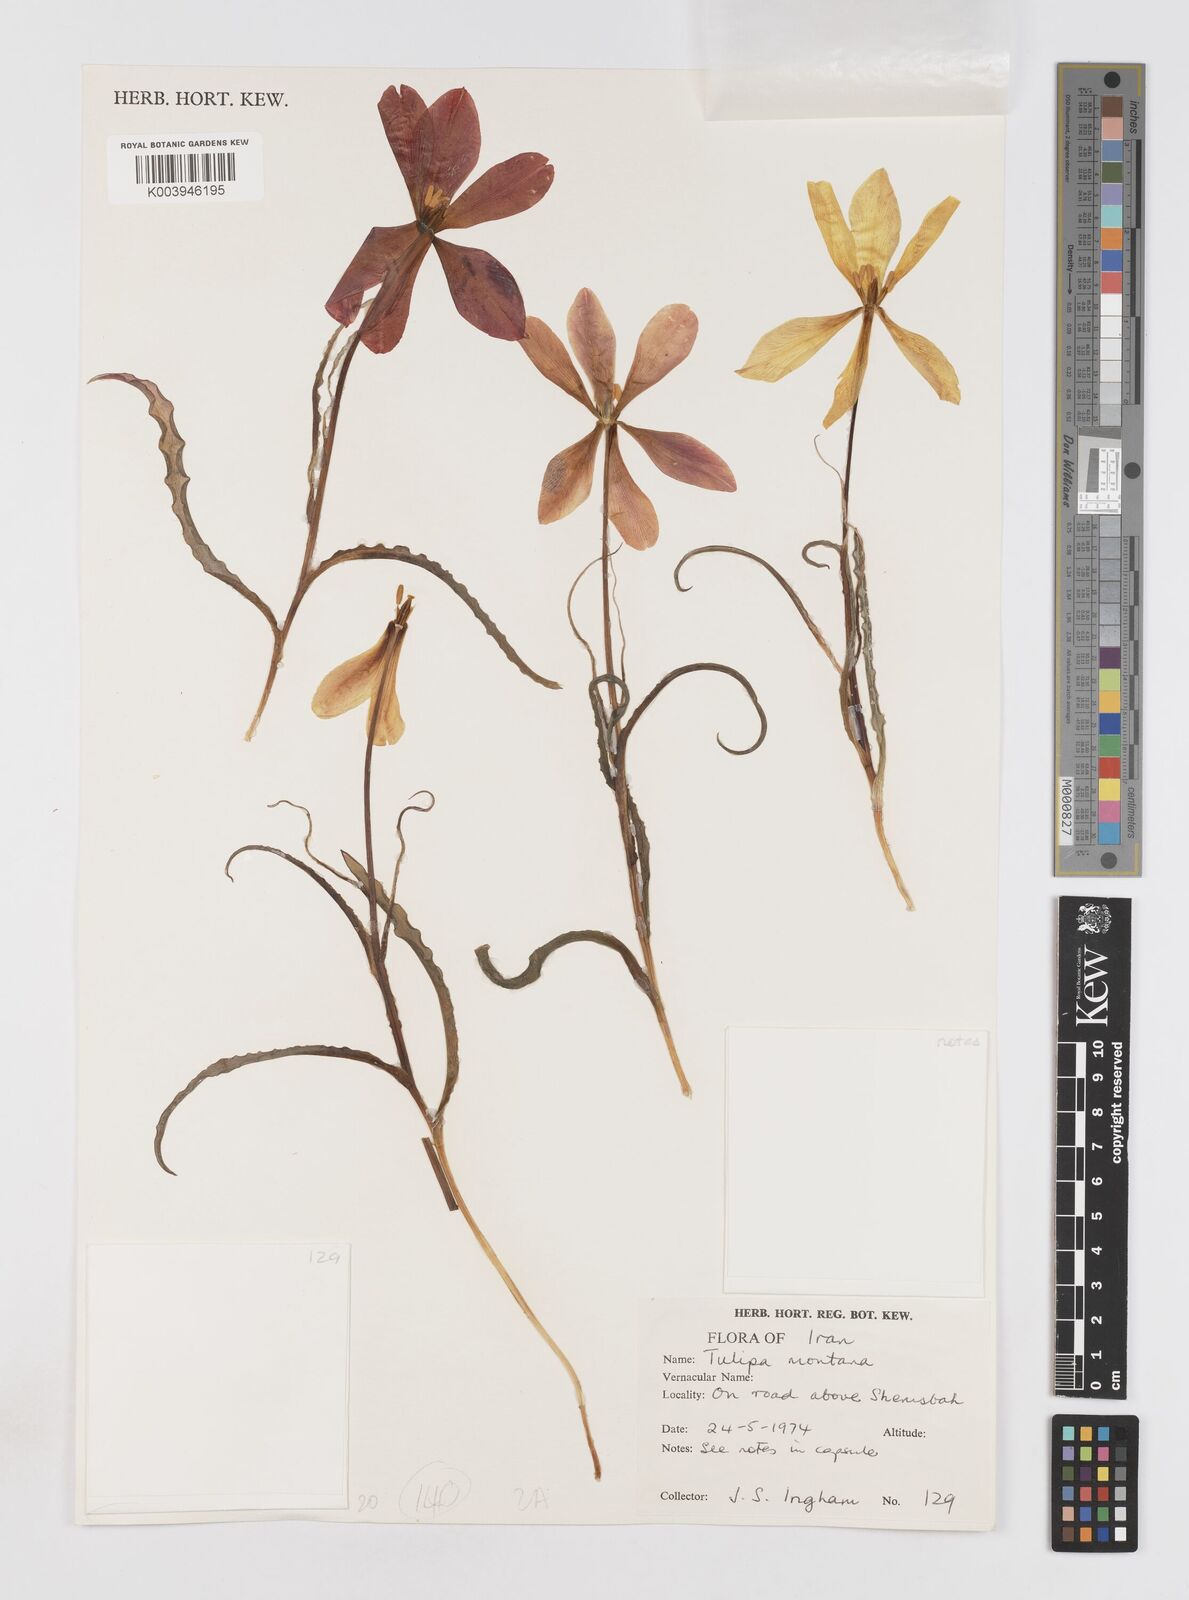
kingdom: Plantae
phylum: Tracheophyta
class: Liliopsida
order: Liliales
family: Liliaceae
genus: Tulipa
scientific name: Tulipa montana
